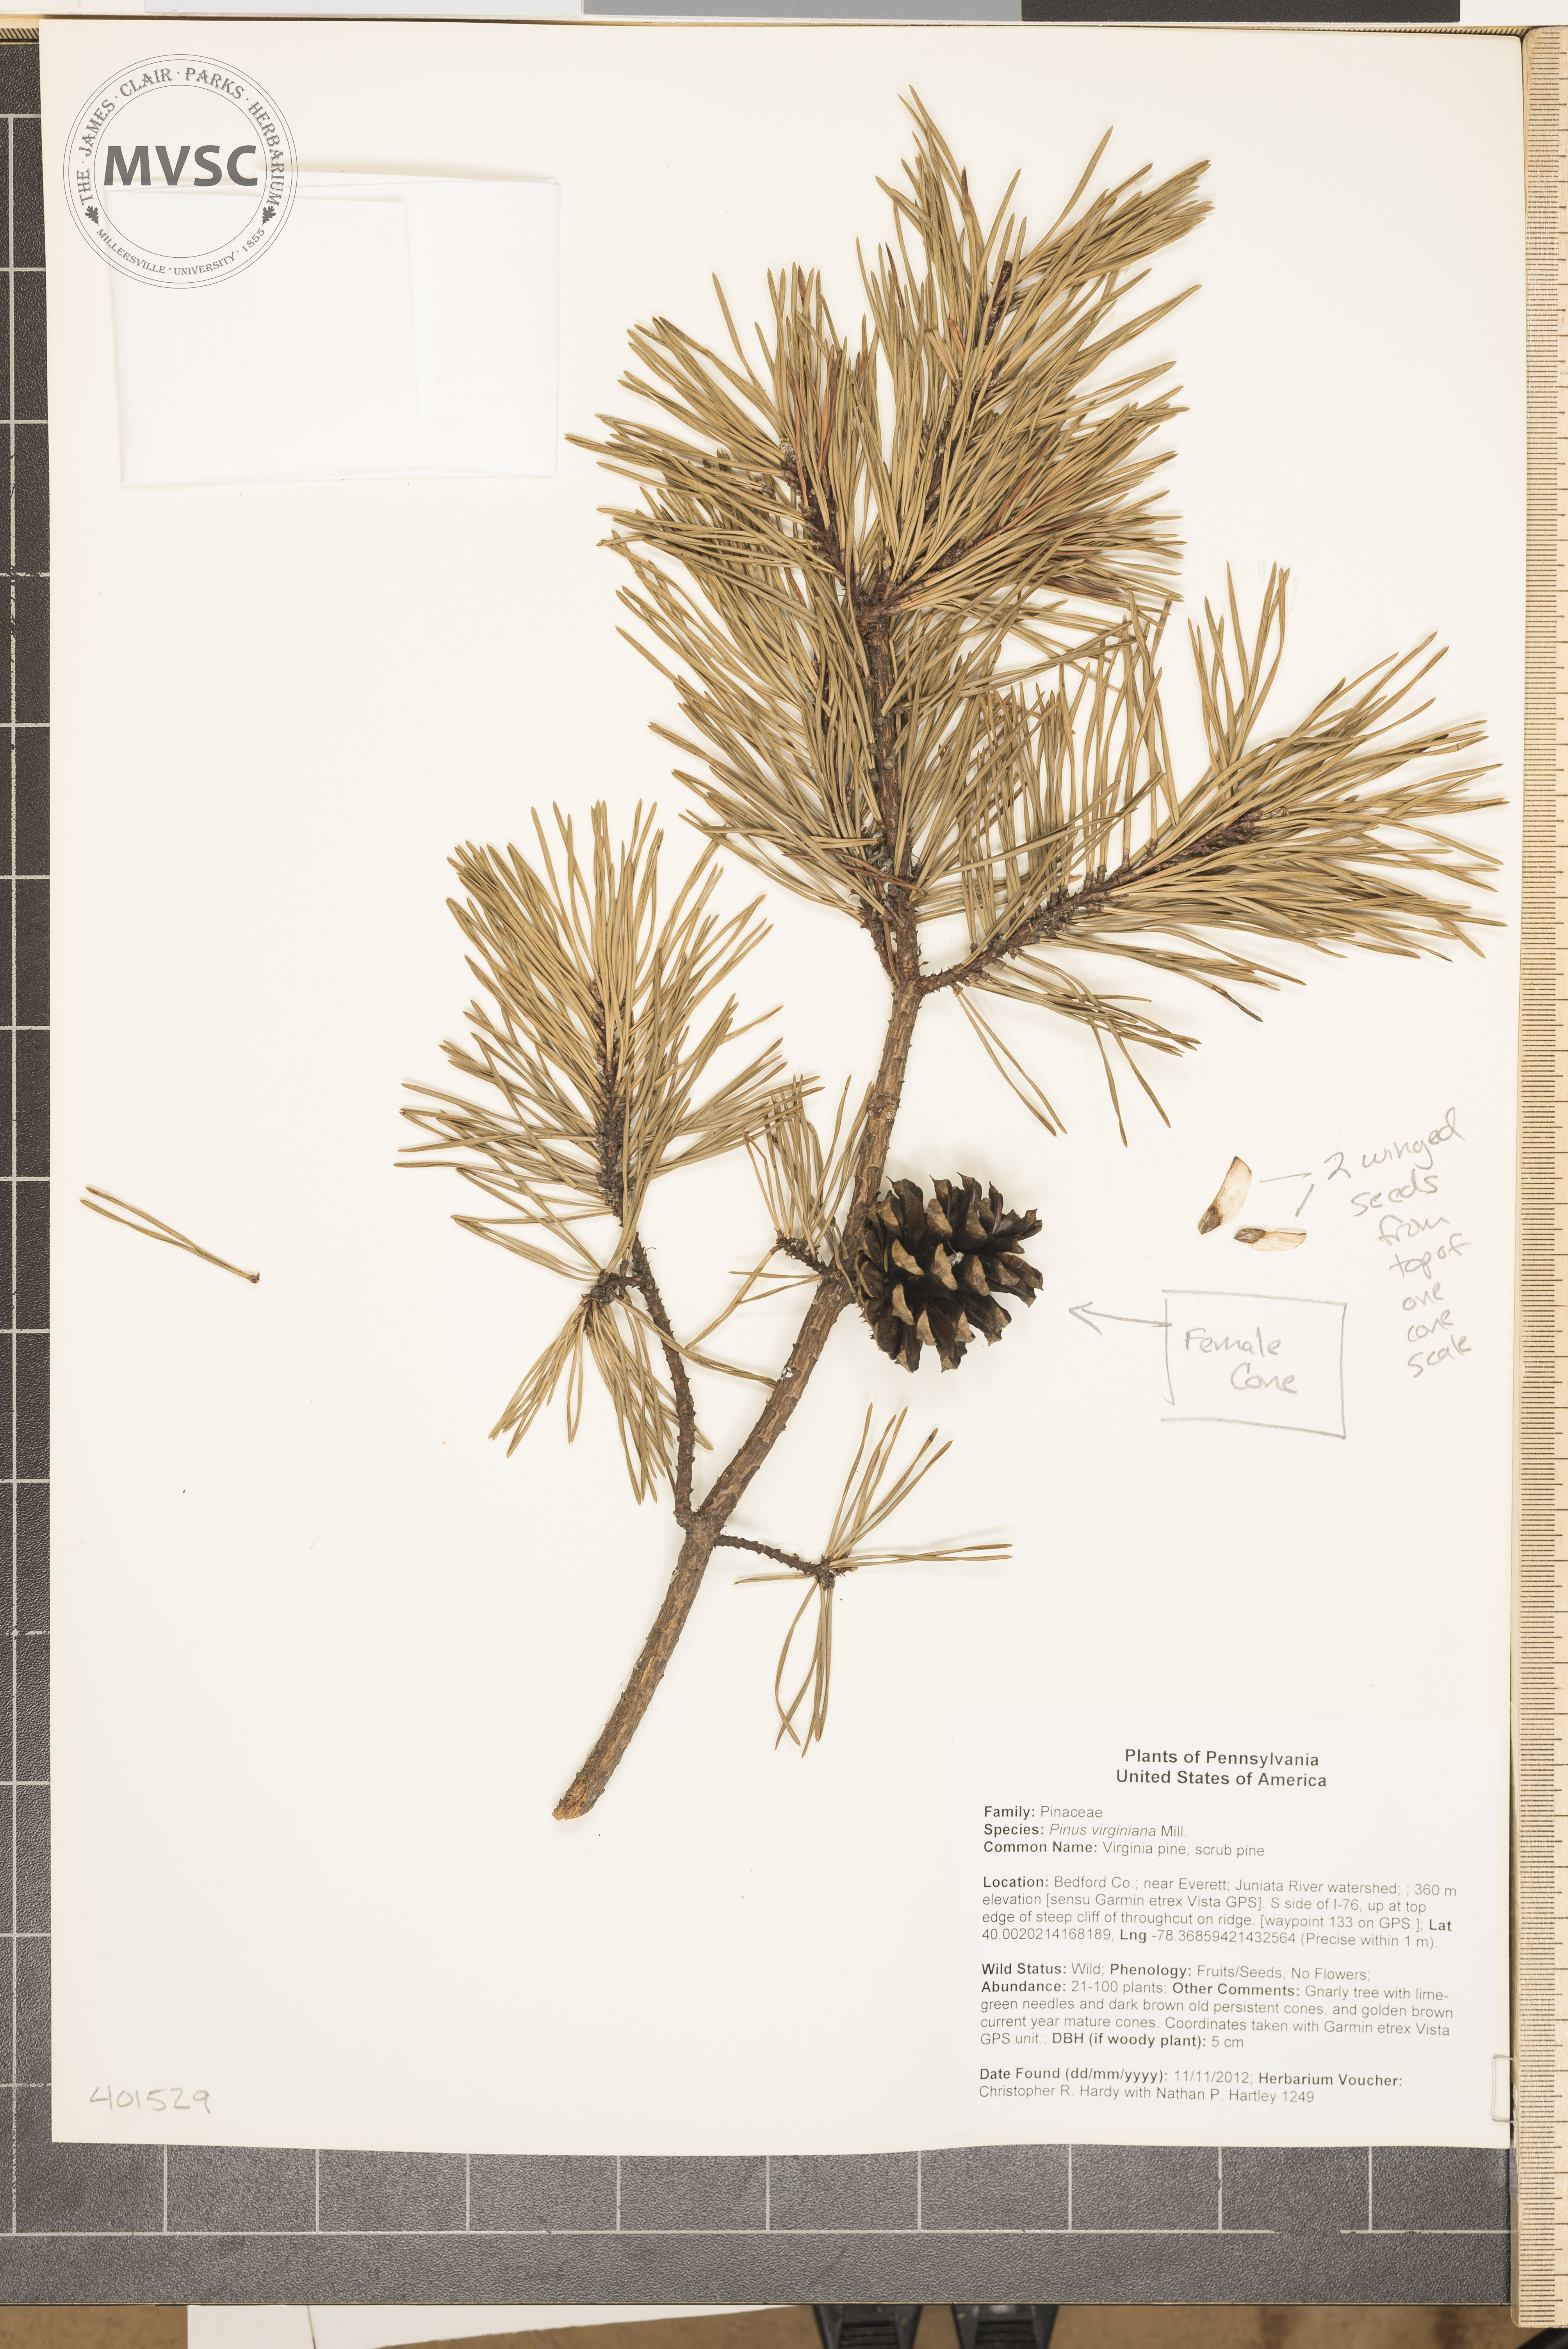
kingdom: Plantae
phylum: Tracheophyta
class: Pinopsida
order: Pinales
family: Pinaceae
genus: Pinus
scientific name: Pinus virginiana
